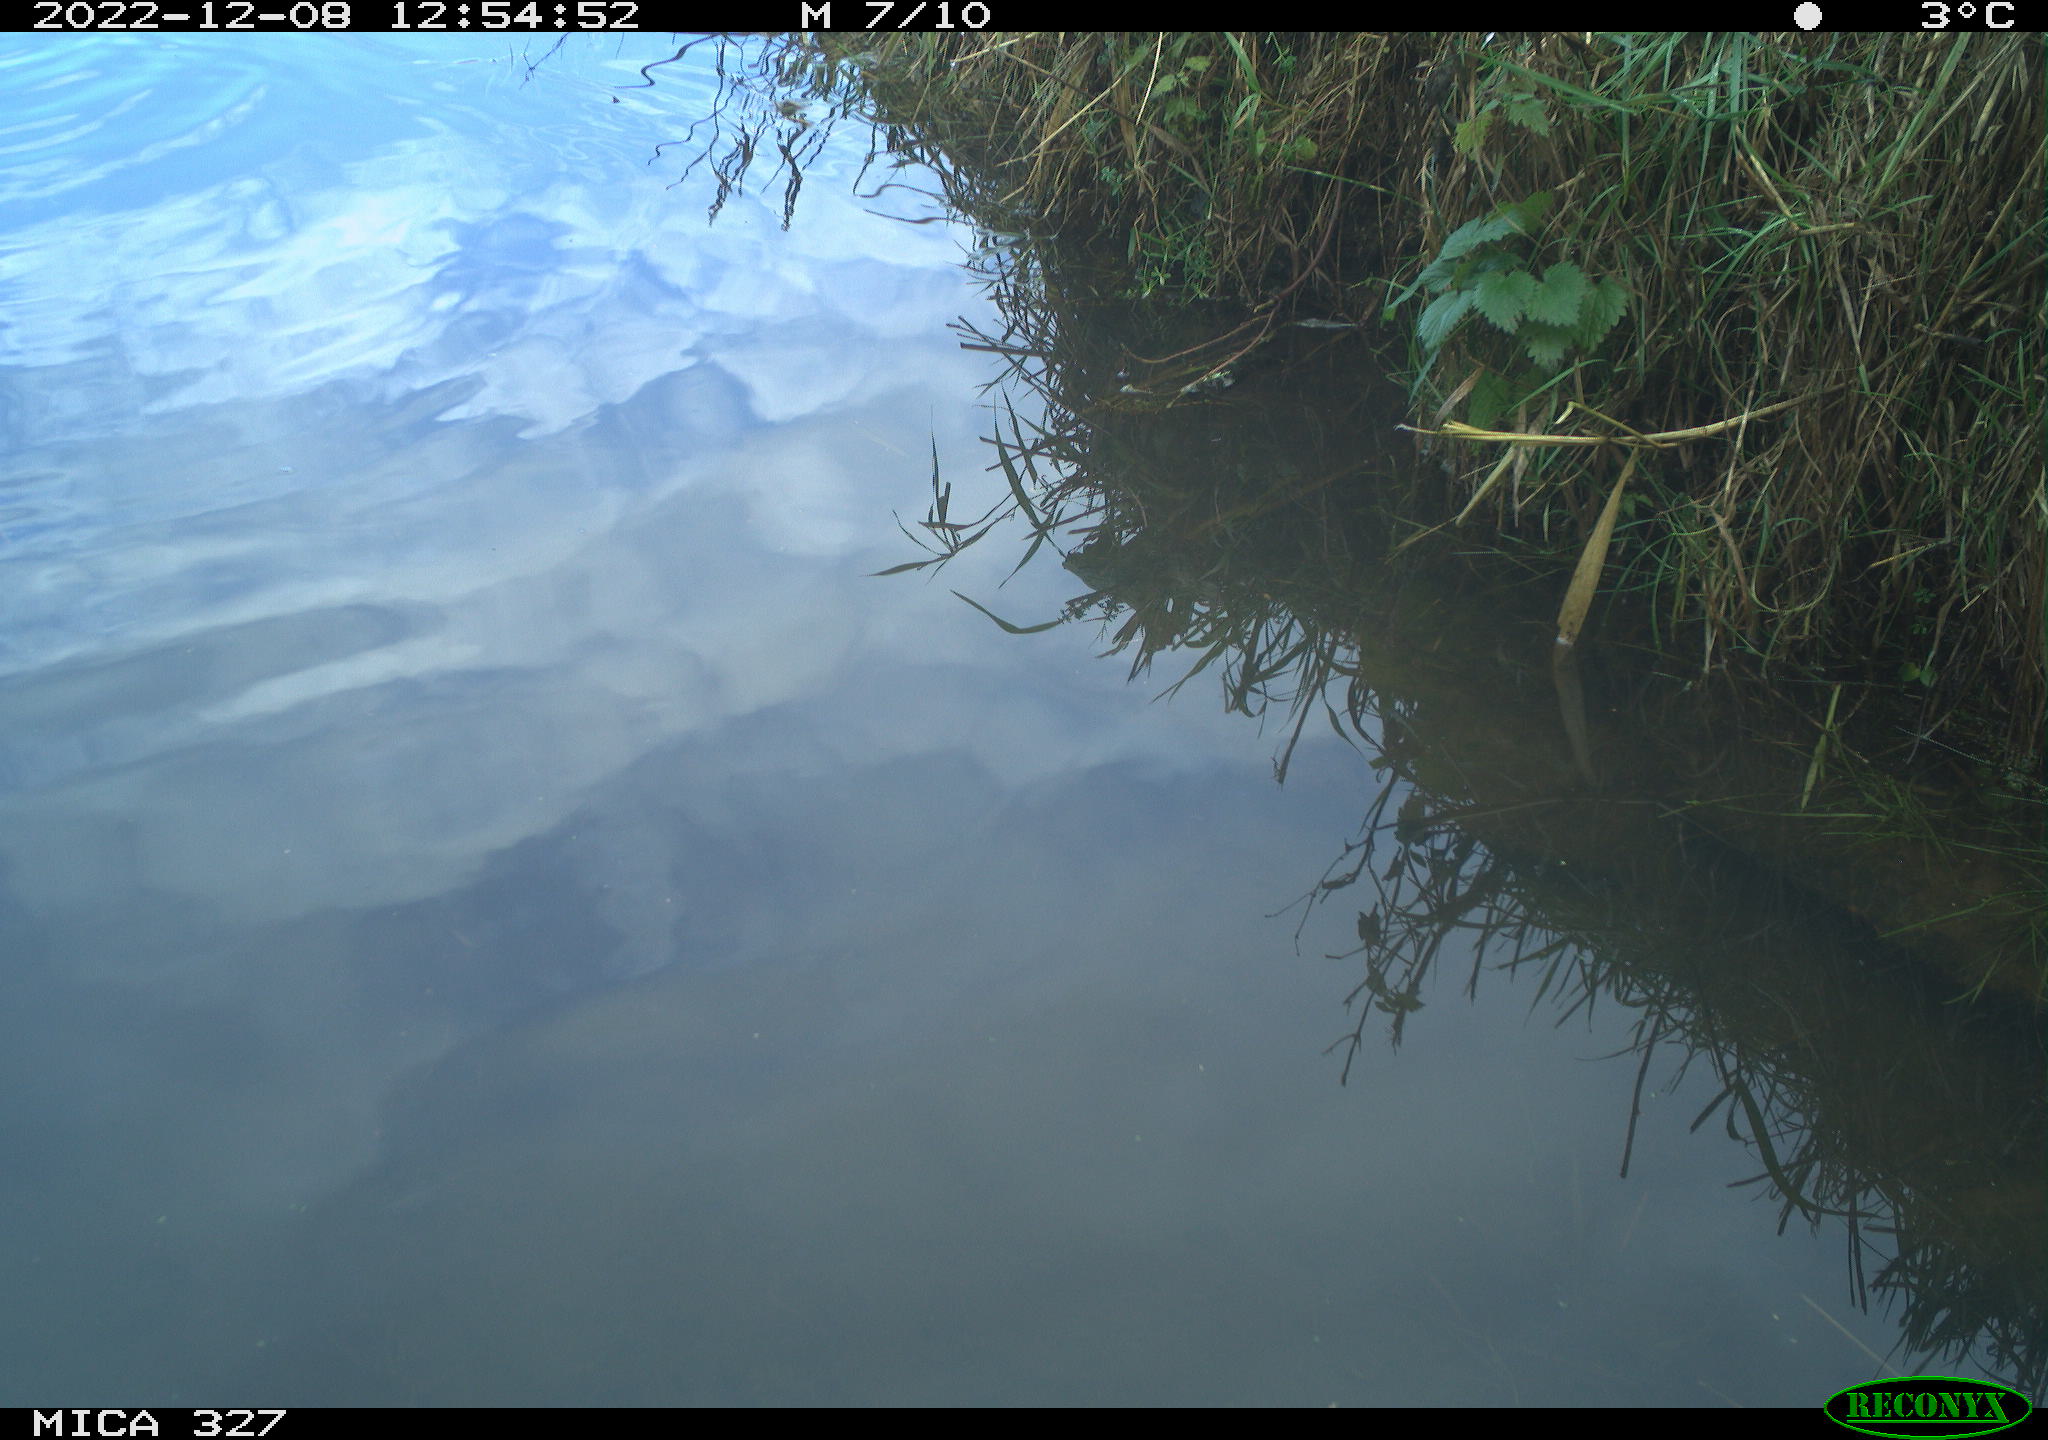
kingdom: Animalia
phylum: Chordata
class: Aves
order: Gruiformes
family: Rallidae
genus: Gallinula
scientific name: Gallinula chloropus
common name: Common moorhen
